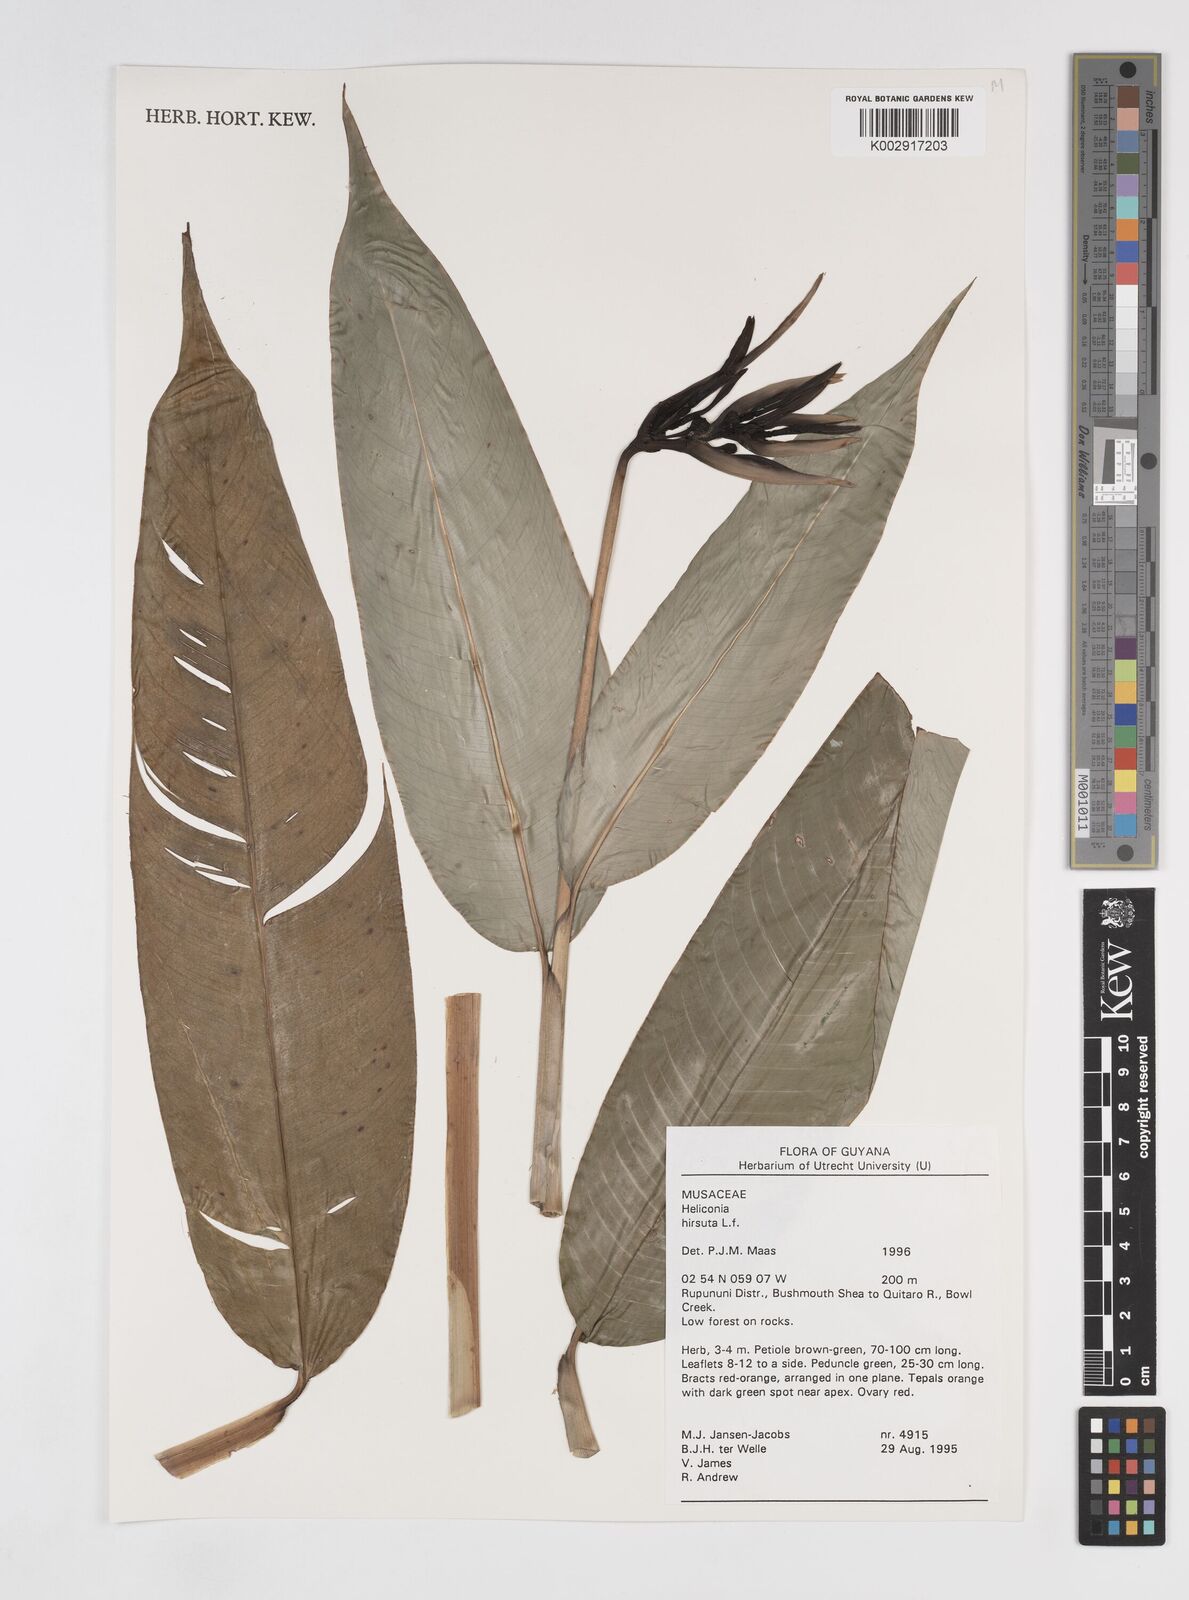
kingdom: Plantae
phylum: Tracheophyta
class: Liliopsida
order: Zingiberales
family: Heliconiaceae
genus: Heliconia
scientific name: Heliconia hirsuta
